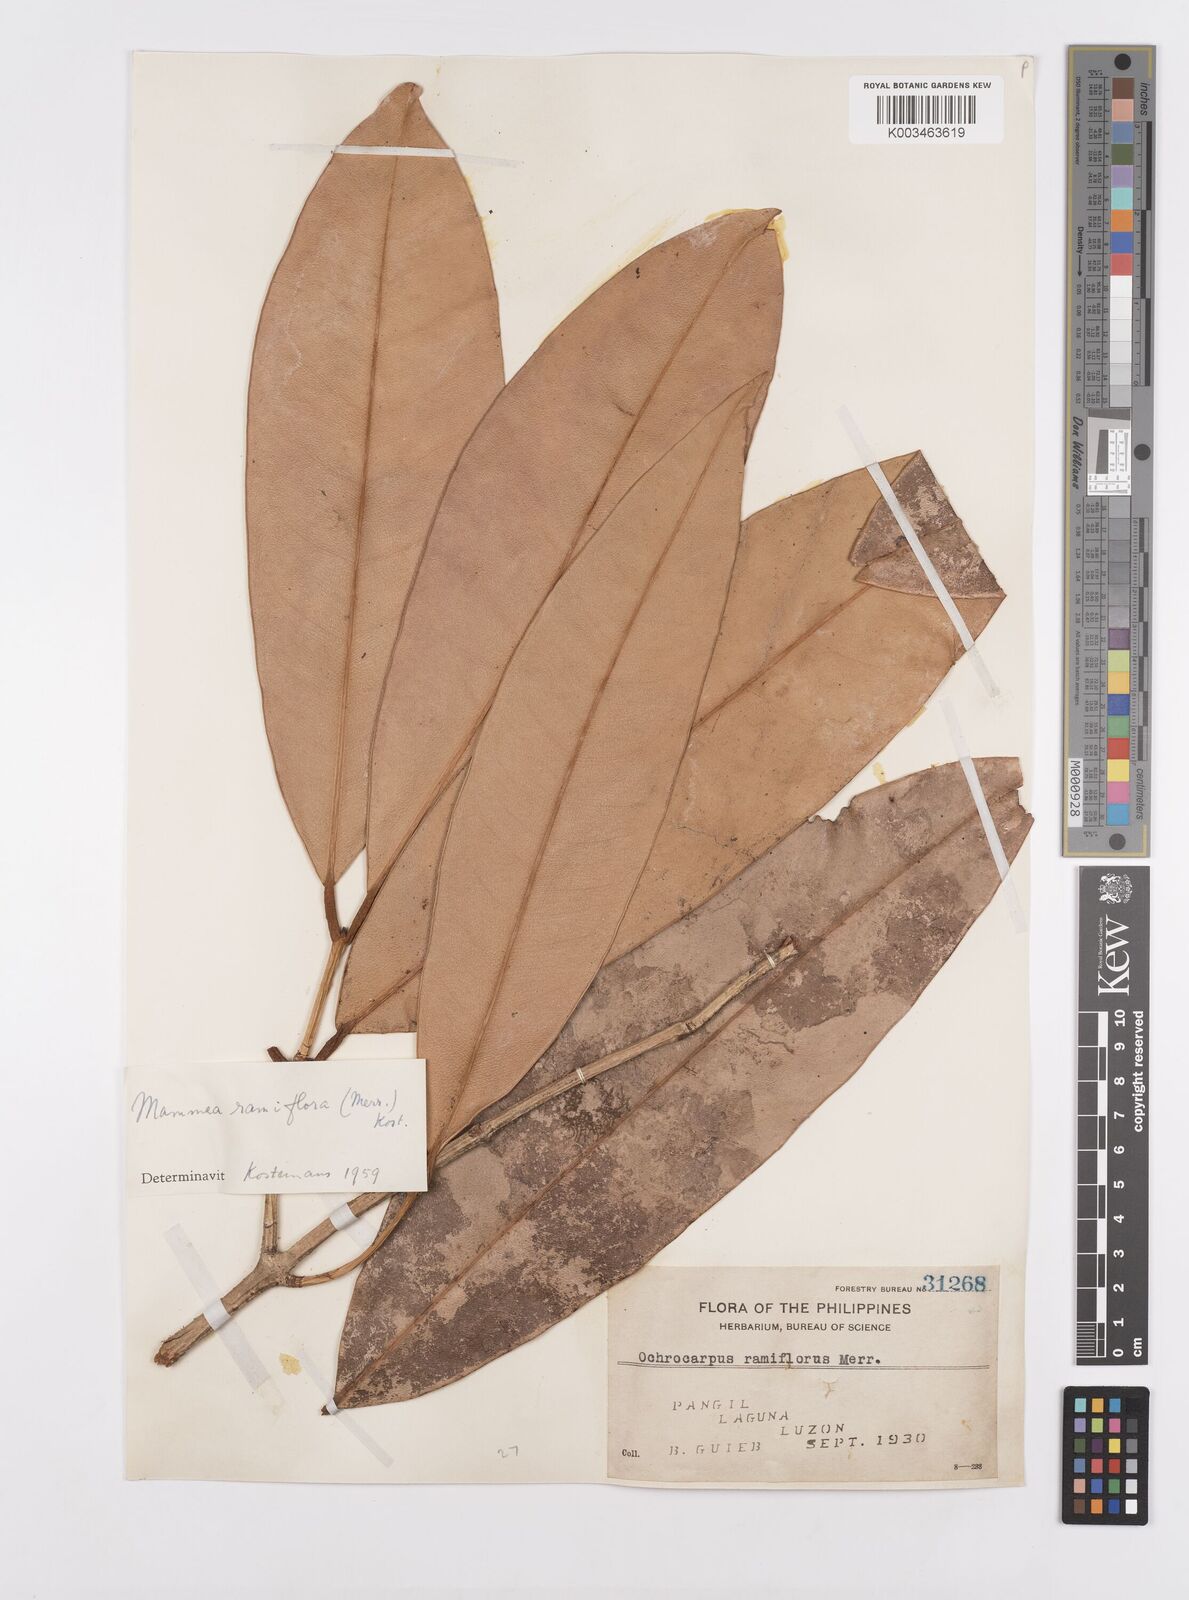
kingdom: Plantae
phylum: Tracheophyta
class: Magnoliopsida
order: Malpighiales
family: Calophyllaceae
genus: Mammea
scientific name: Mammea ramiflora
